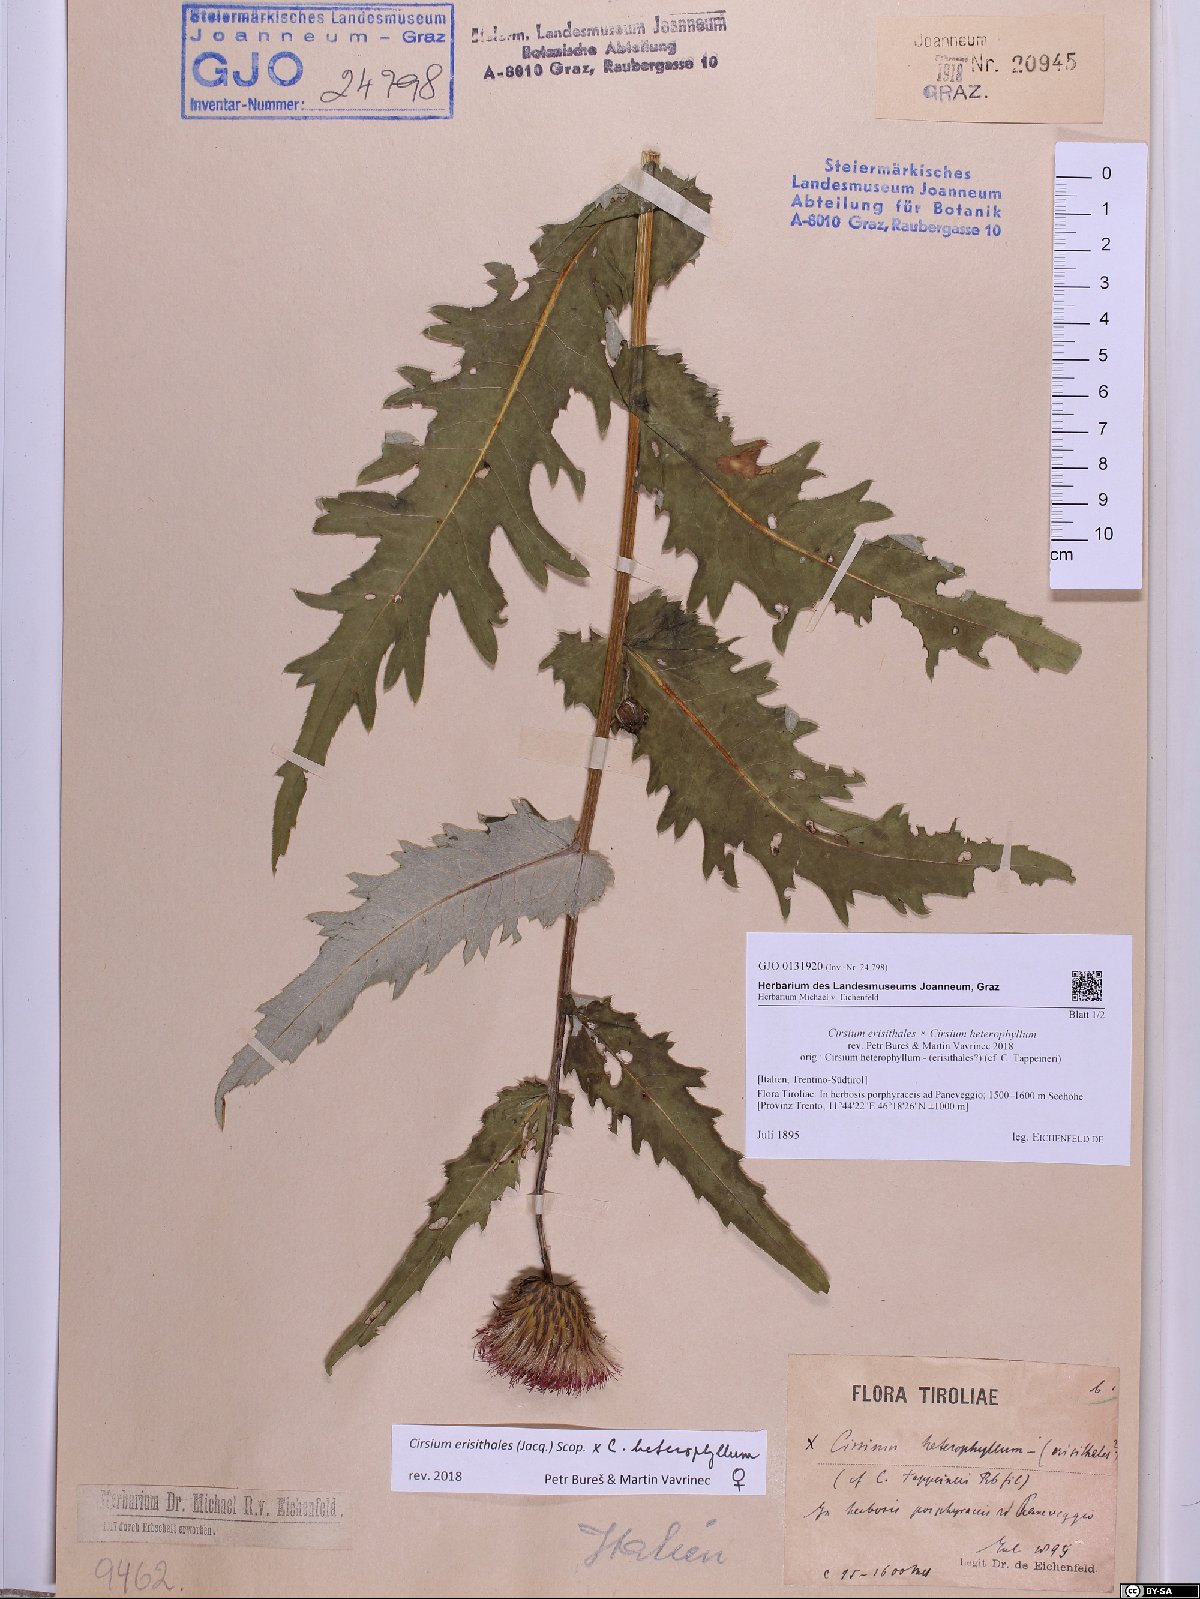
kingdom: Plantae
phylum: Tracheophyta
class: Magnoliopsida
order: Asterales
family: Asteraceae
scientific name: Asteraceae
